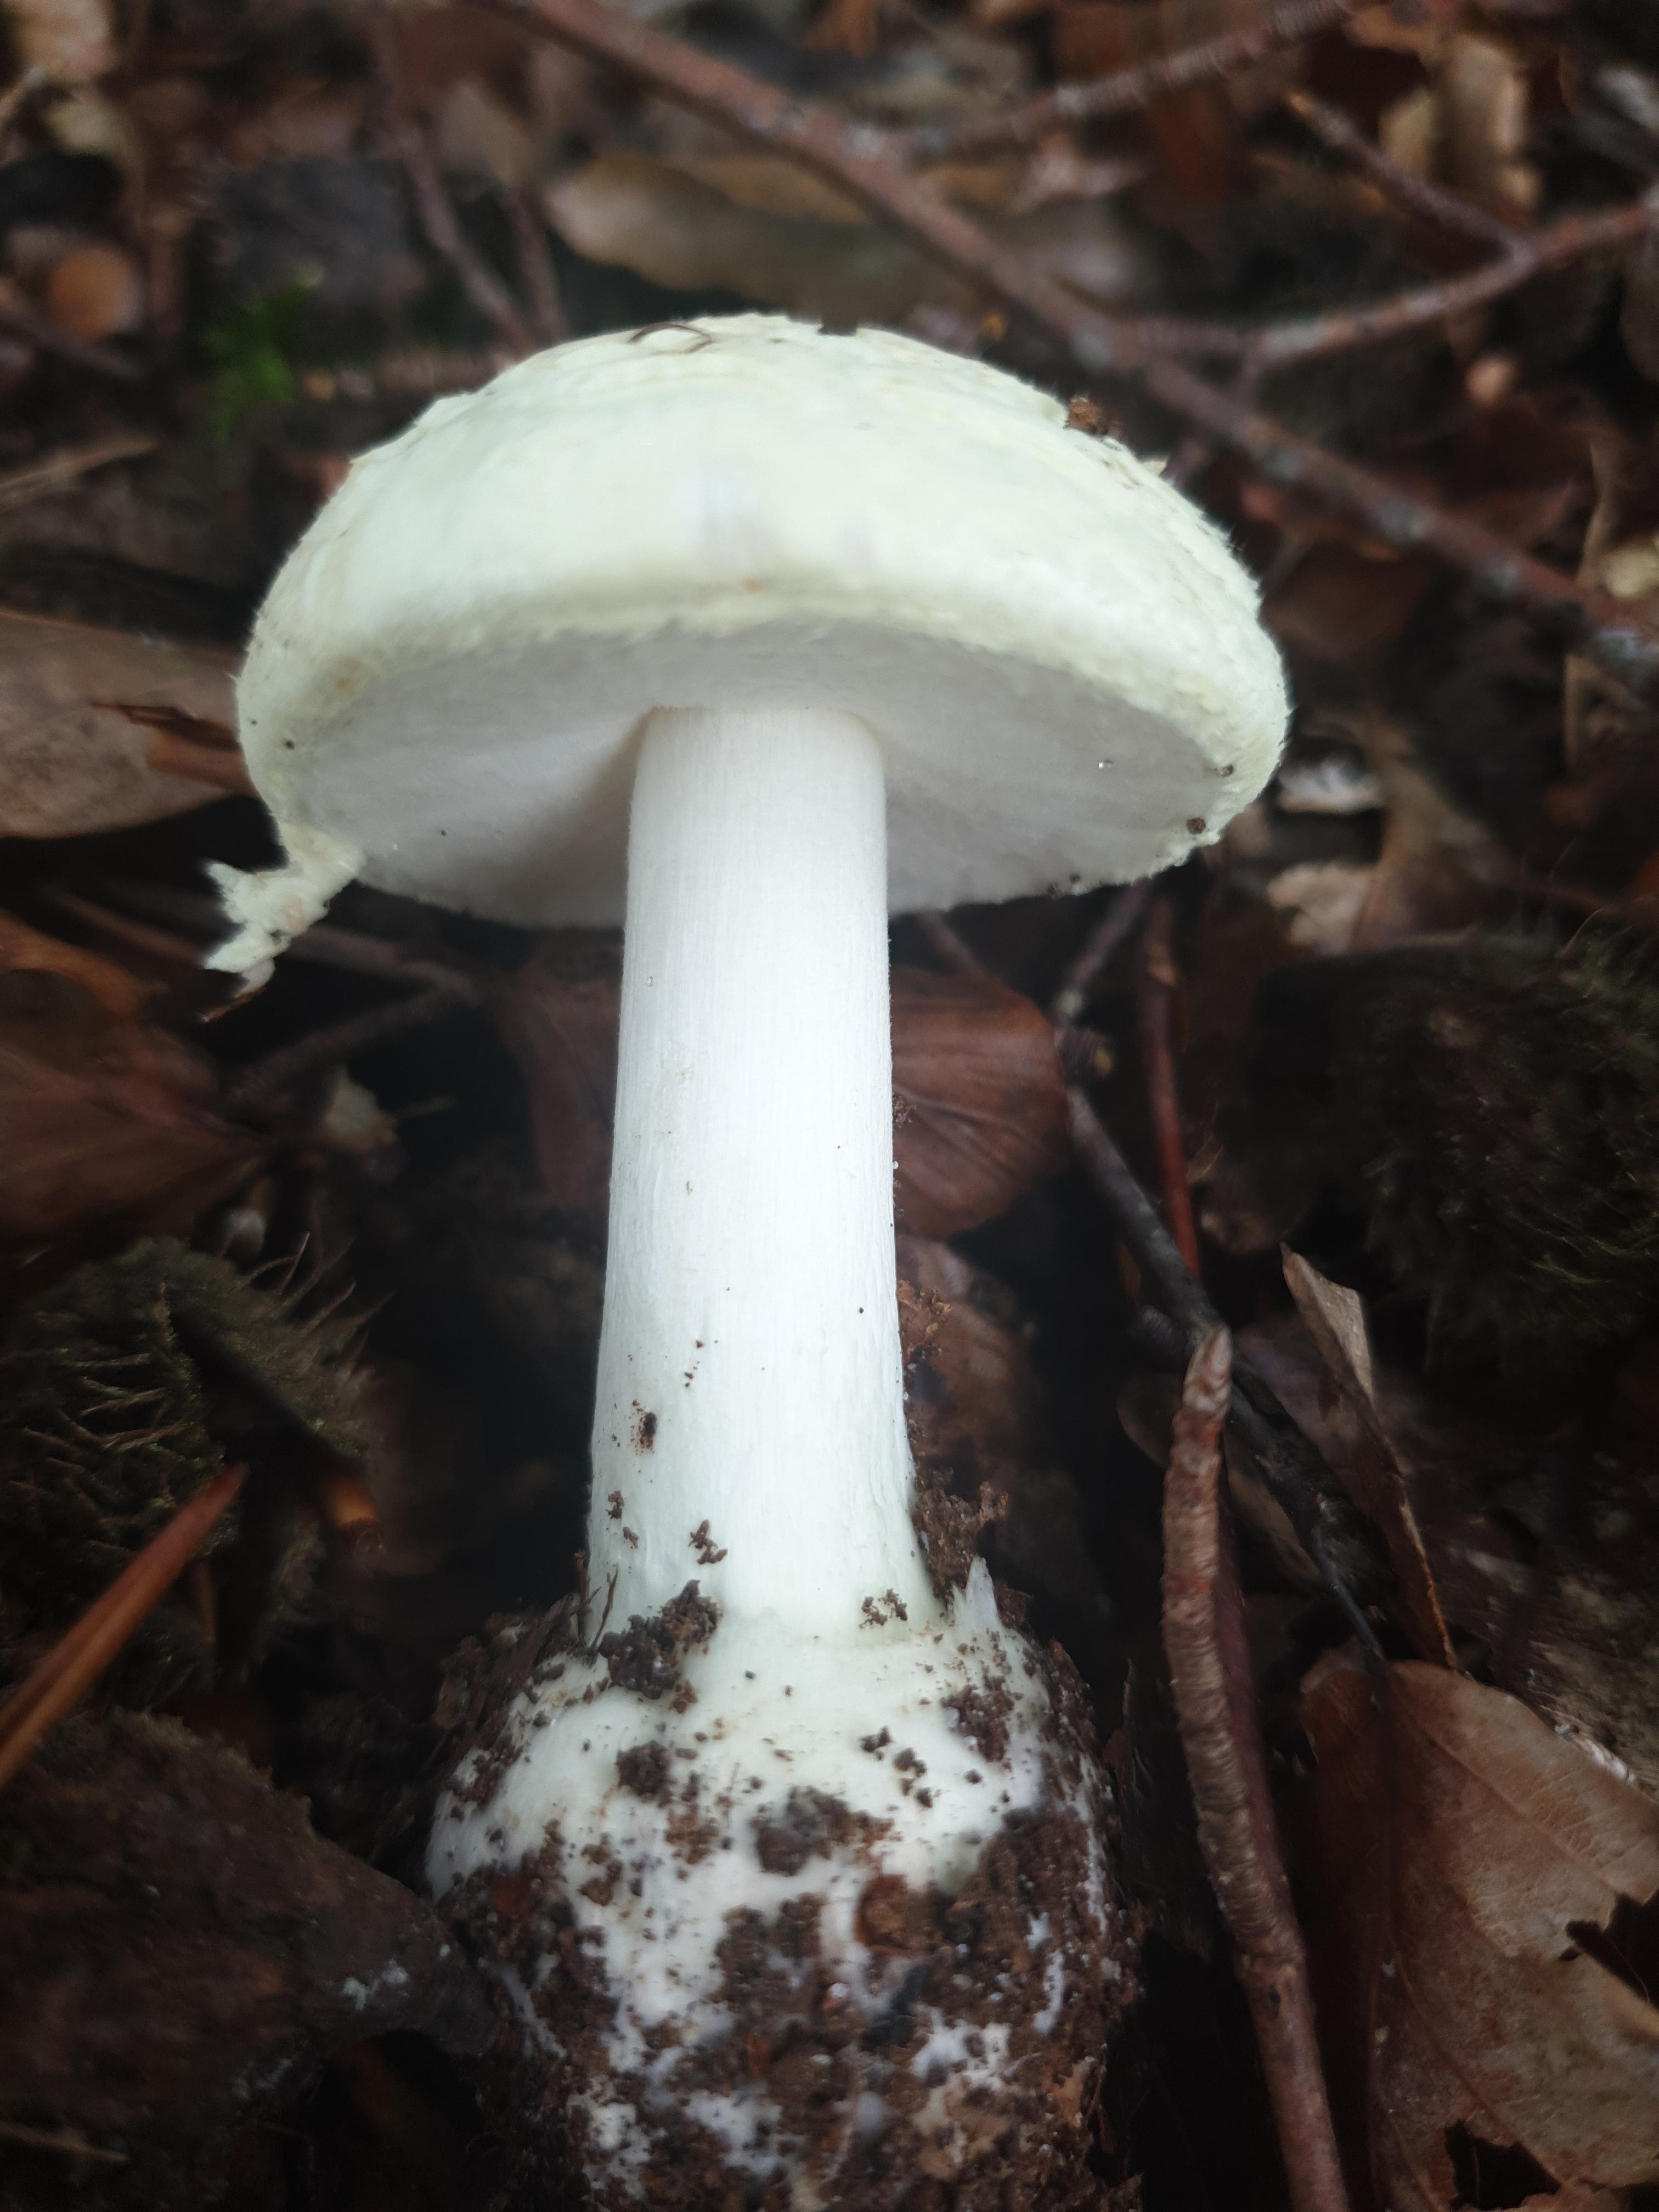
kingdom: Fungi
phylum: Basidiomycota
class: Agaricomycetes
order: Agaricales
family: Amanitaceae
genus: Amanita
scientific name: Amanita citrina
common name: kugleknoldet fluesvamp
